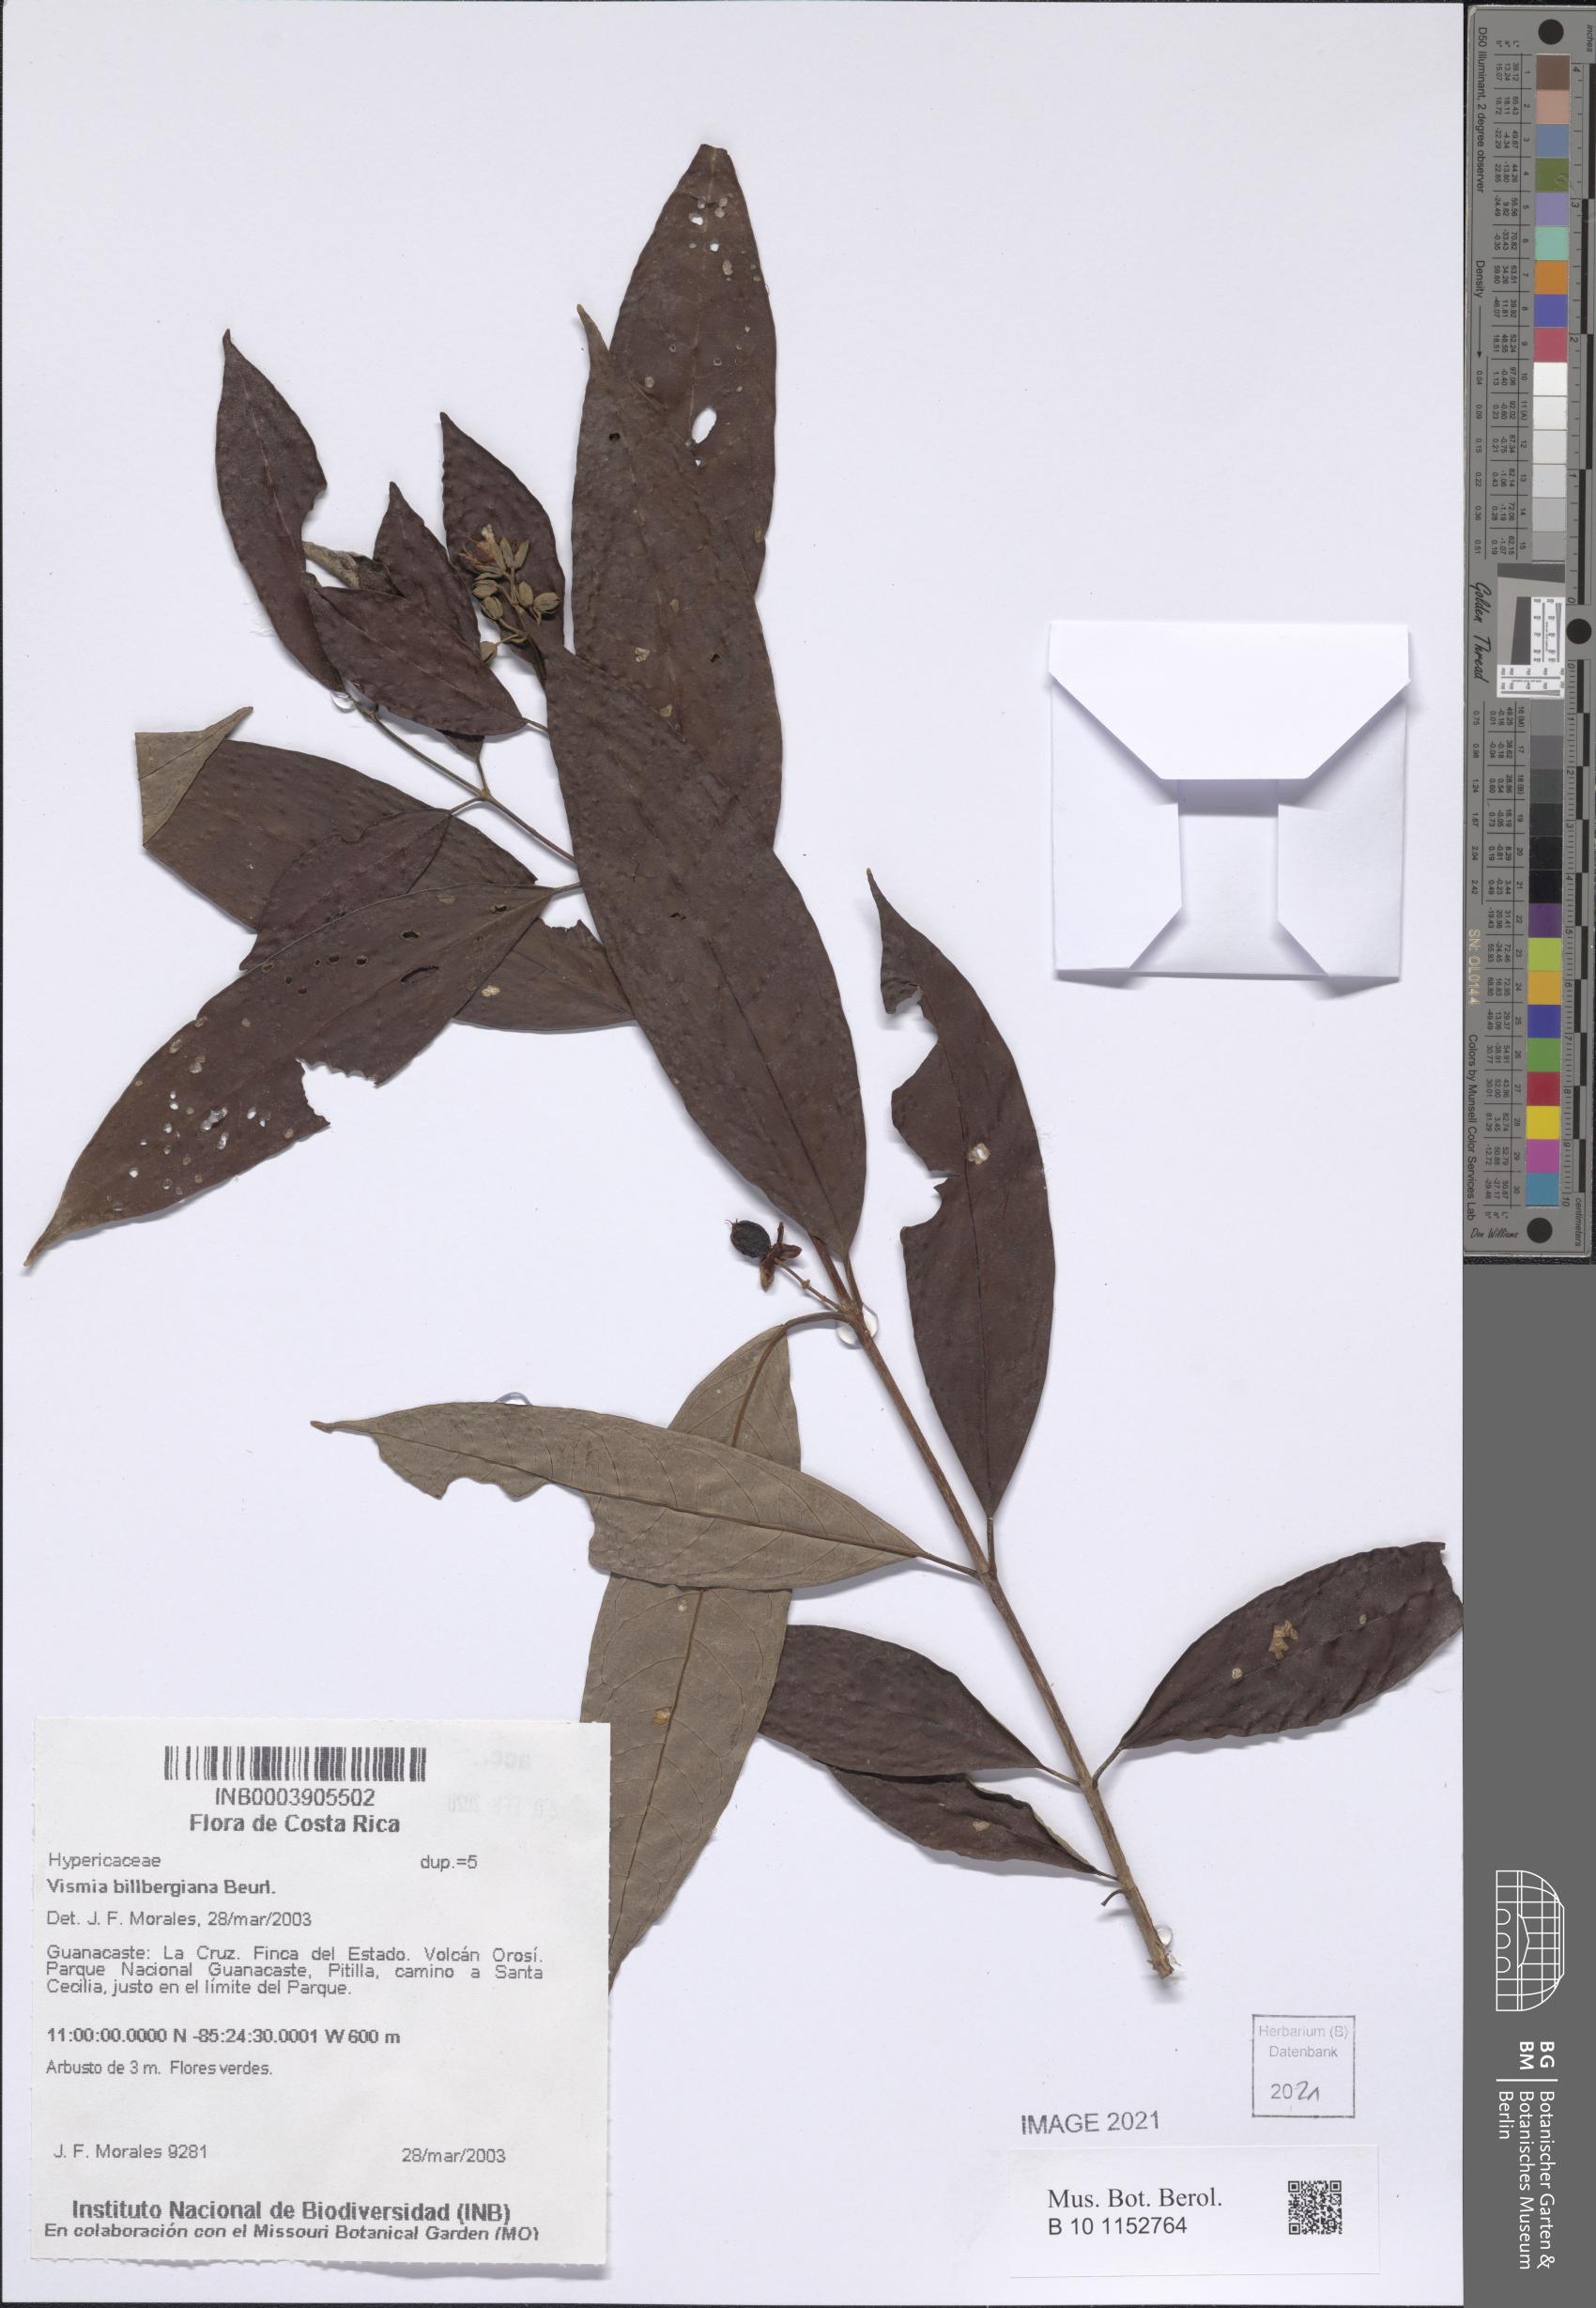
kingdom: Plantae
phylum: Tracheophyta
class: Magnoliopsida
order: Malpighiales
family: Hypericaceae
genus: Vismia
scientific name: Vismia billbergiana
